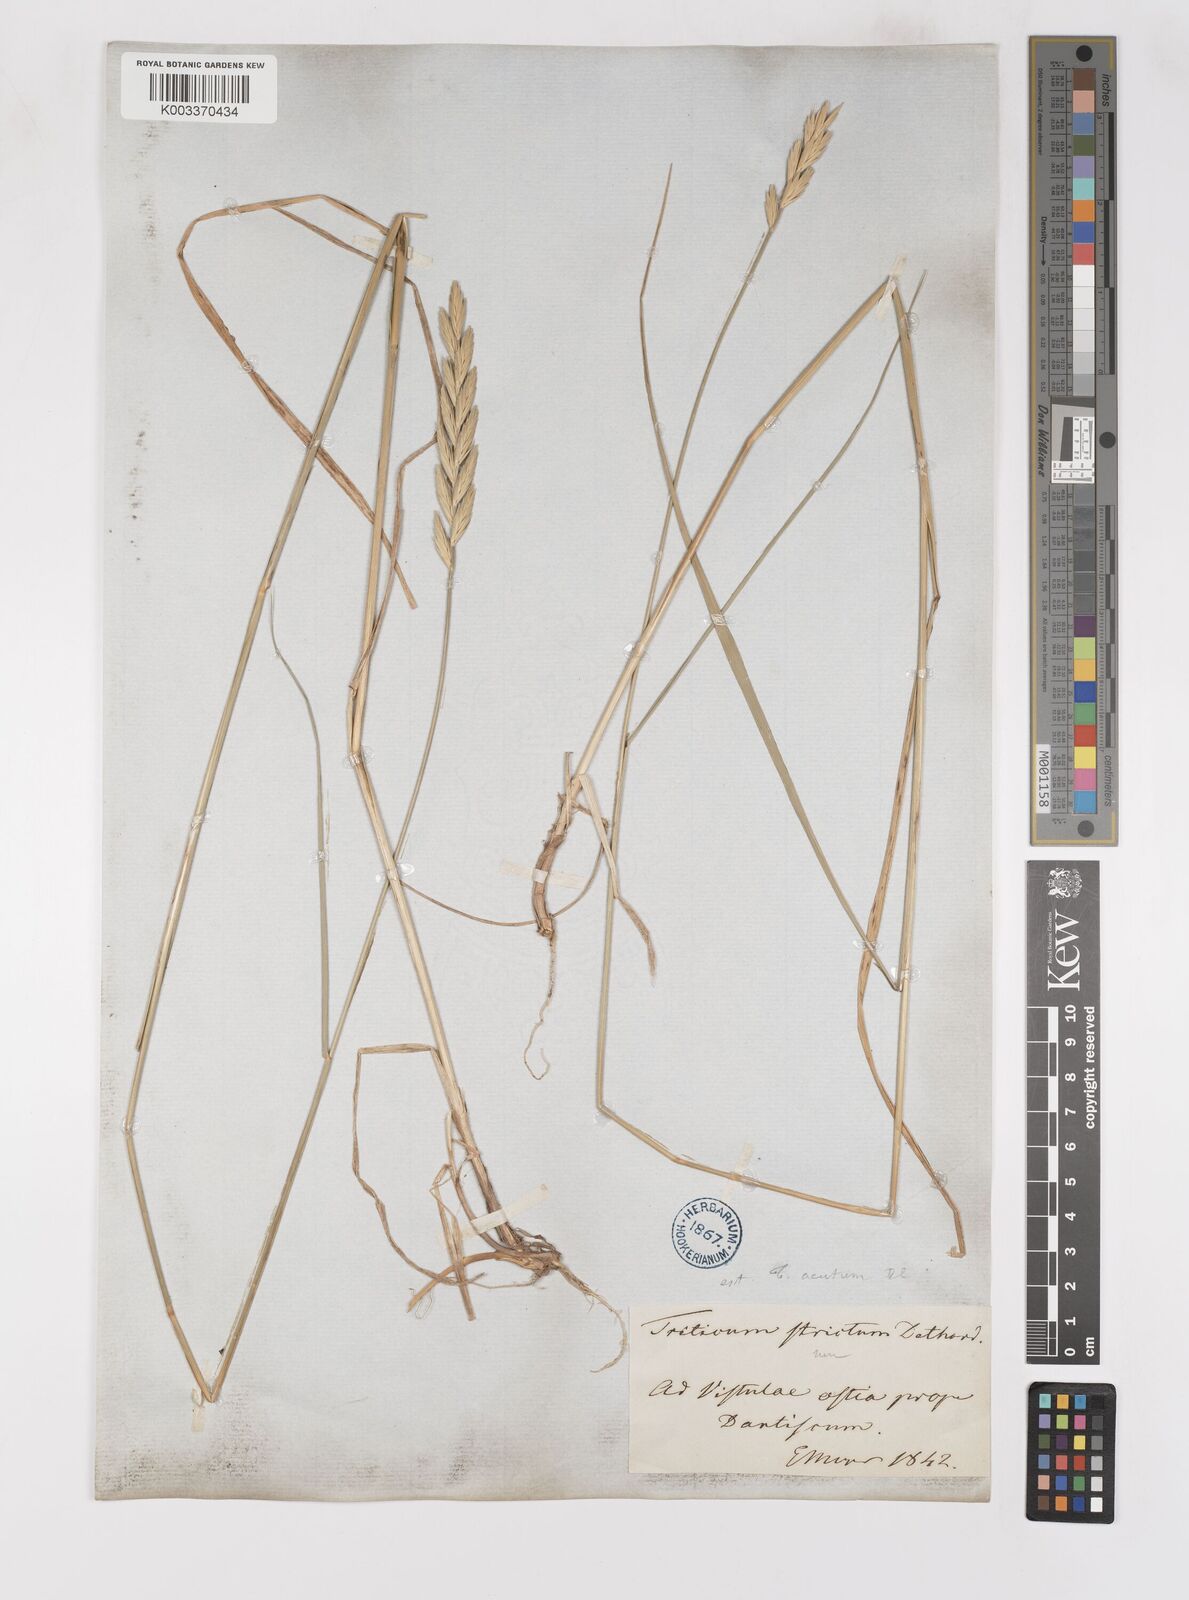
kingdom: Plantae
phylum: Tracheophyta
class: Liliopsida
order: Poales
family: Poaceae
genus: Elymus
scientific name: Elymus oliveri
